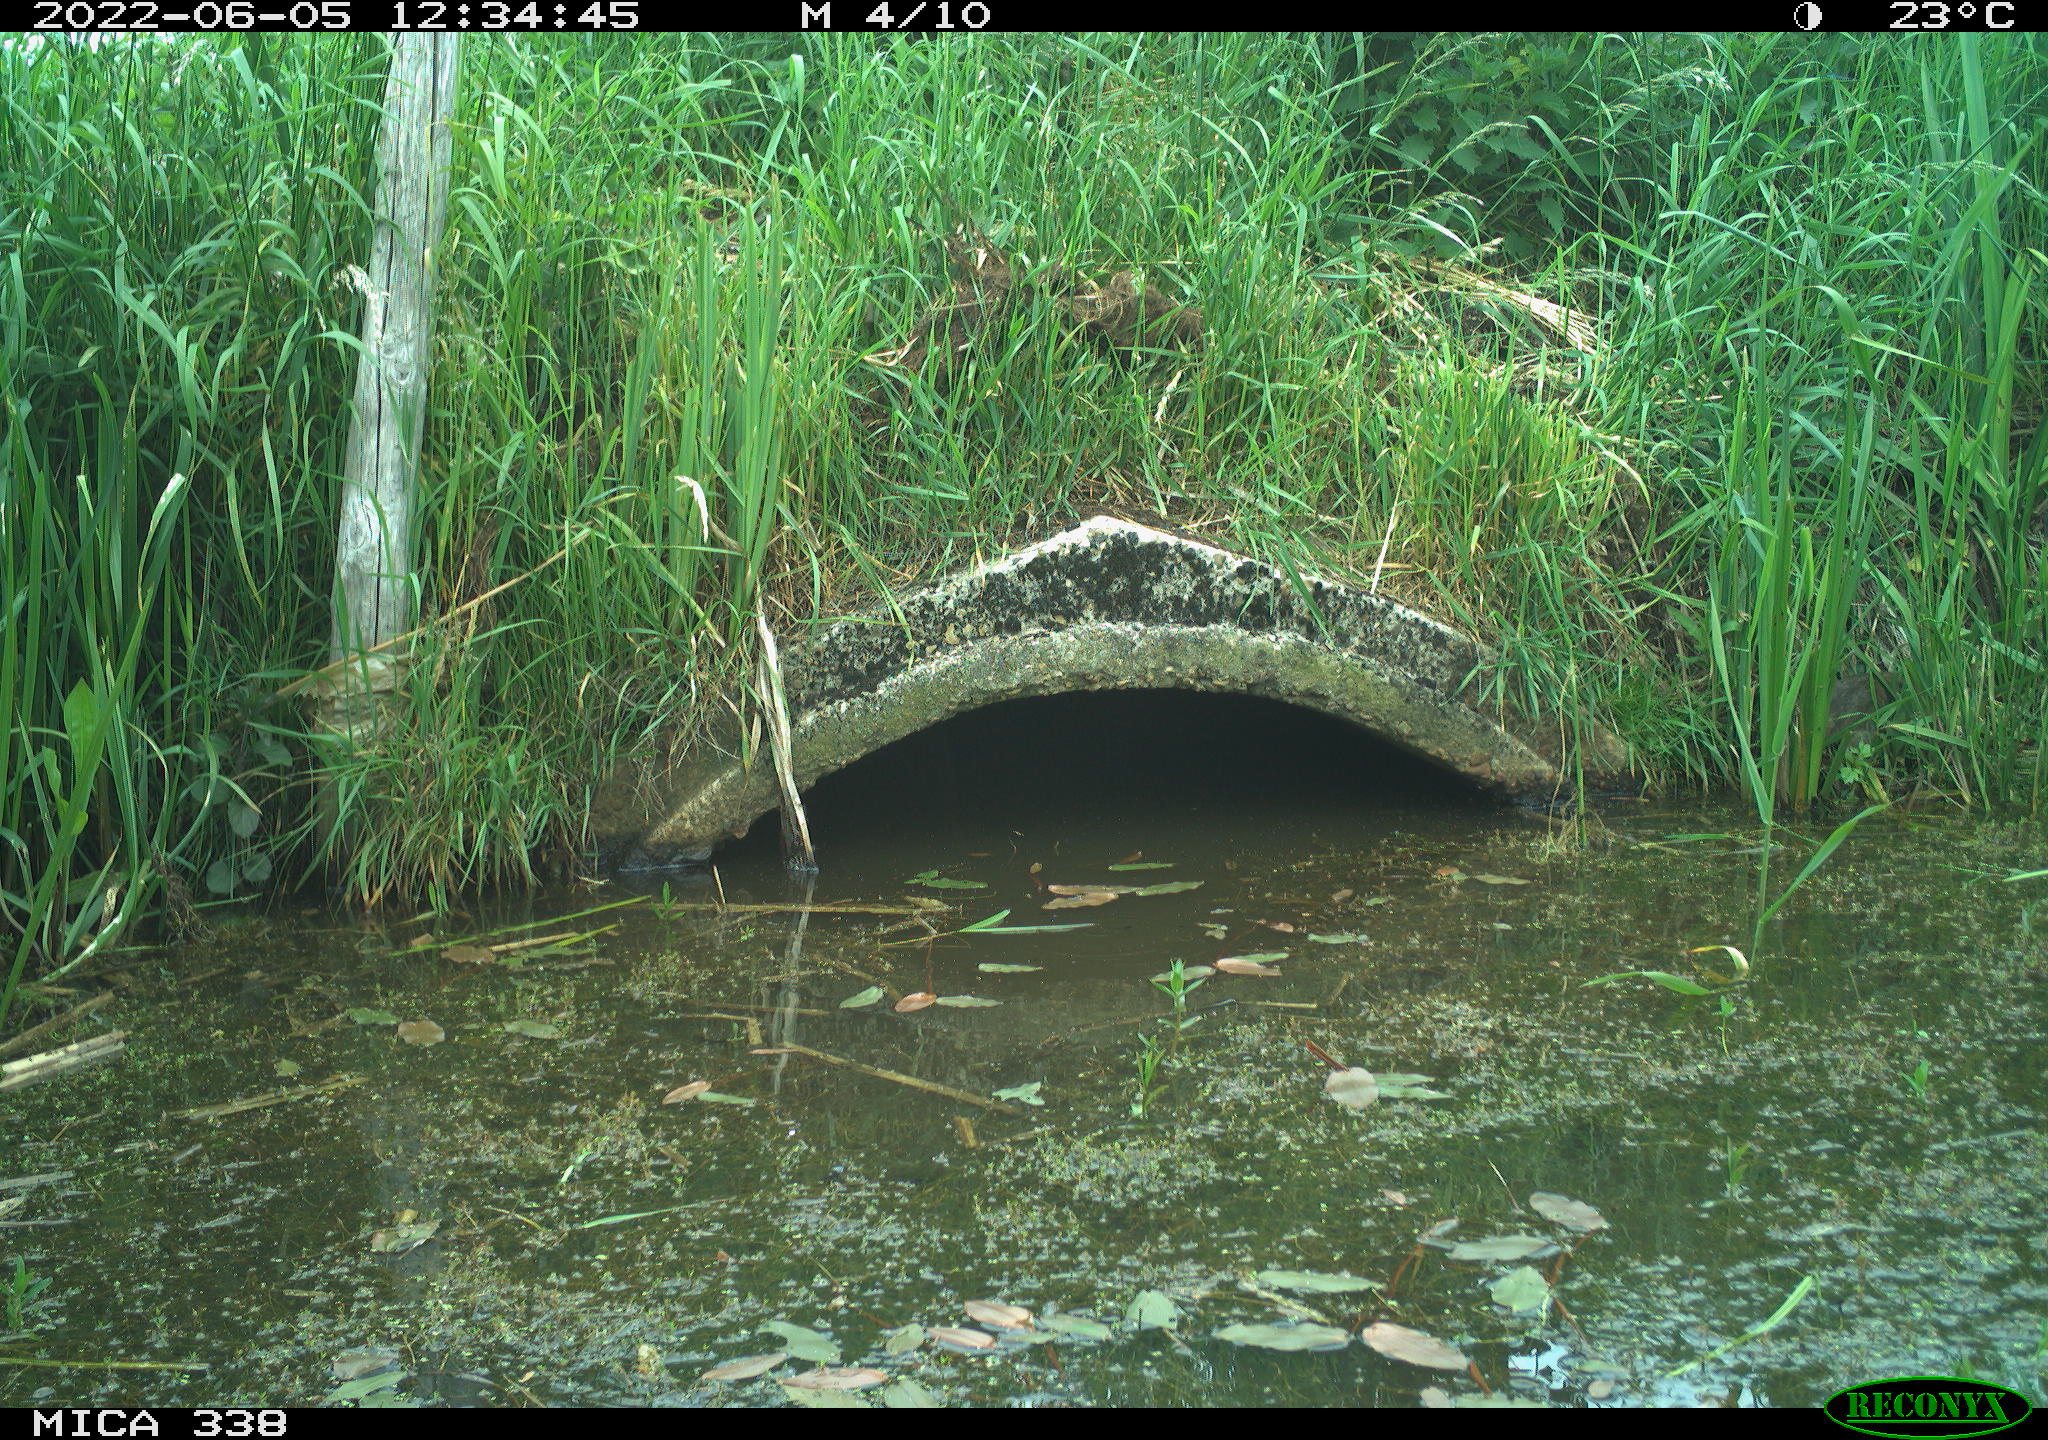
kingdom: Animalia
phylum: Chordata
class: Mammalia
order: Rodentia
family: Muridae
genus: Rattus
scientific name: Rattus norvegicus
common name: Brown rat
